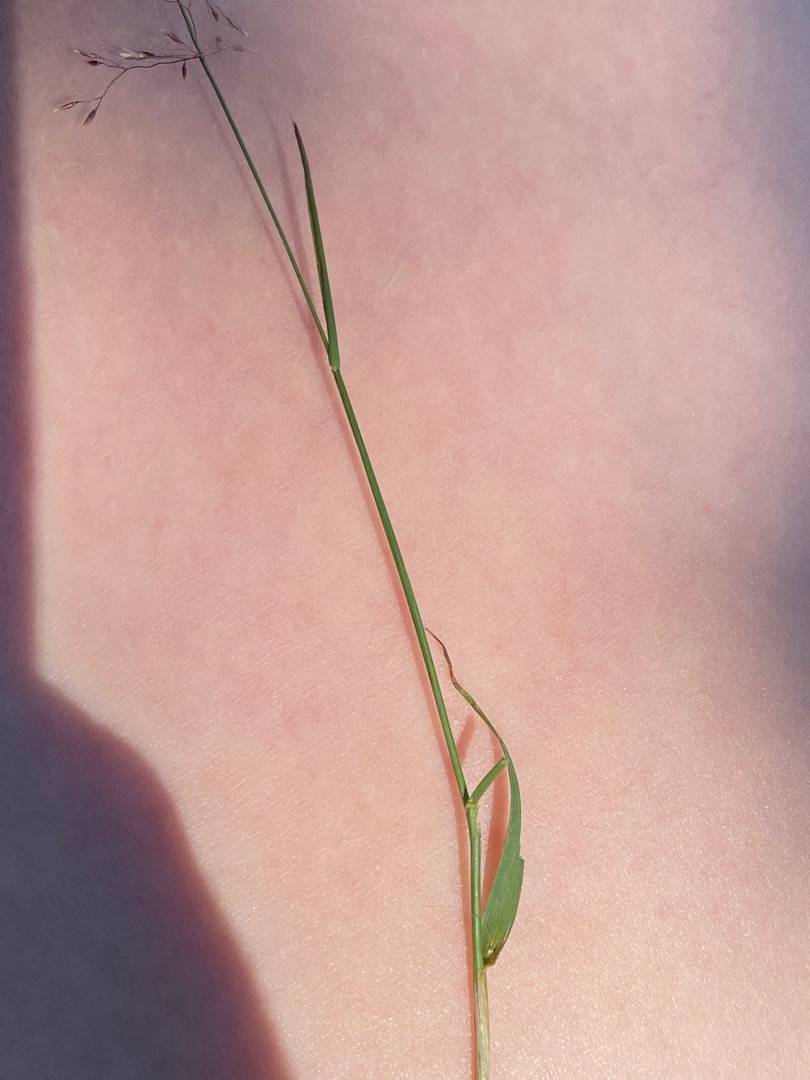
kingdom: Plantae
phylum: Tracheophyta
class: Liliopsida
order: Poales
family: Poaceae
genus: Agrostis
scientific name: Agrostis capillaris
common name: Almindelig hvene
